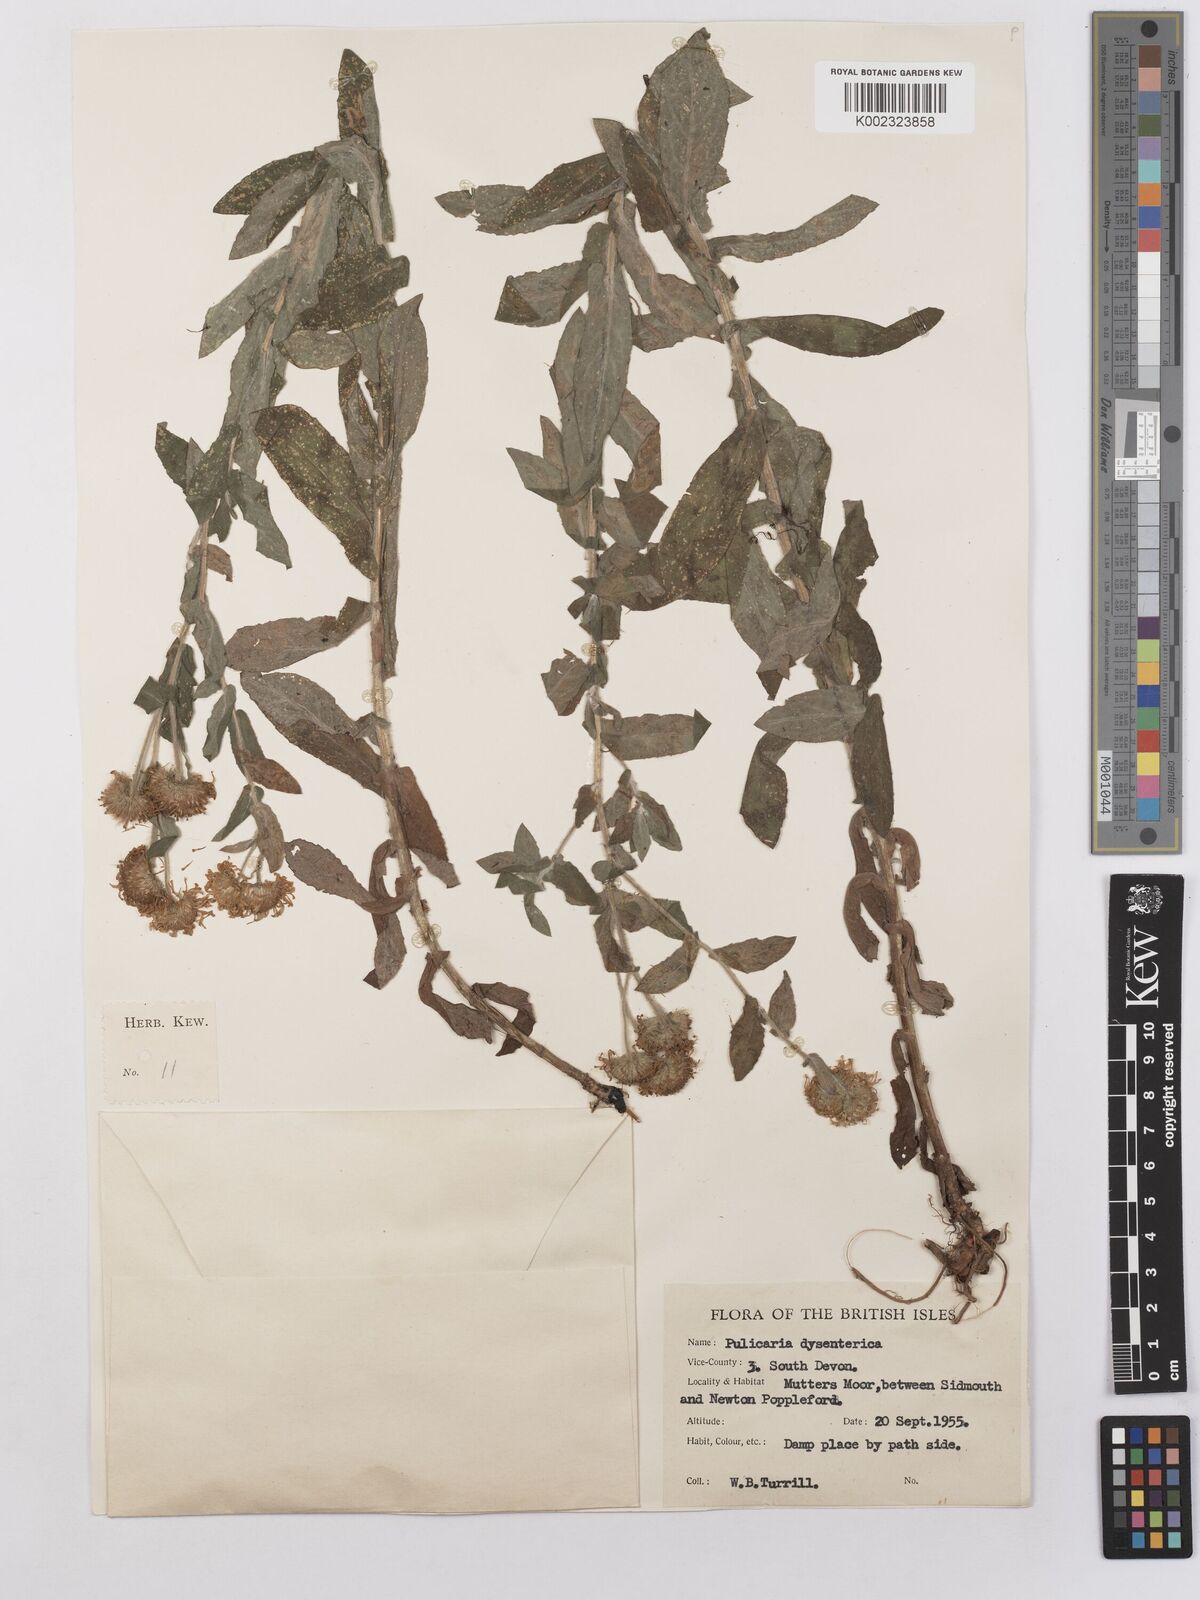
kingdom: Plantae
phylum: Tracheophyta
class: Magnoliopsida
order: Asterales
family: Asteraceae
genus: Pulicaria
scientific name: Pulicaria dysenterica
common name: Common fleabane
